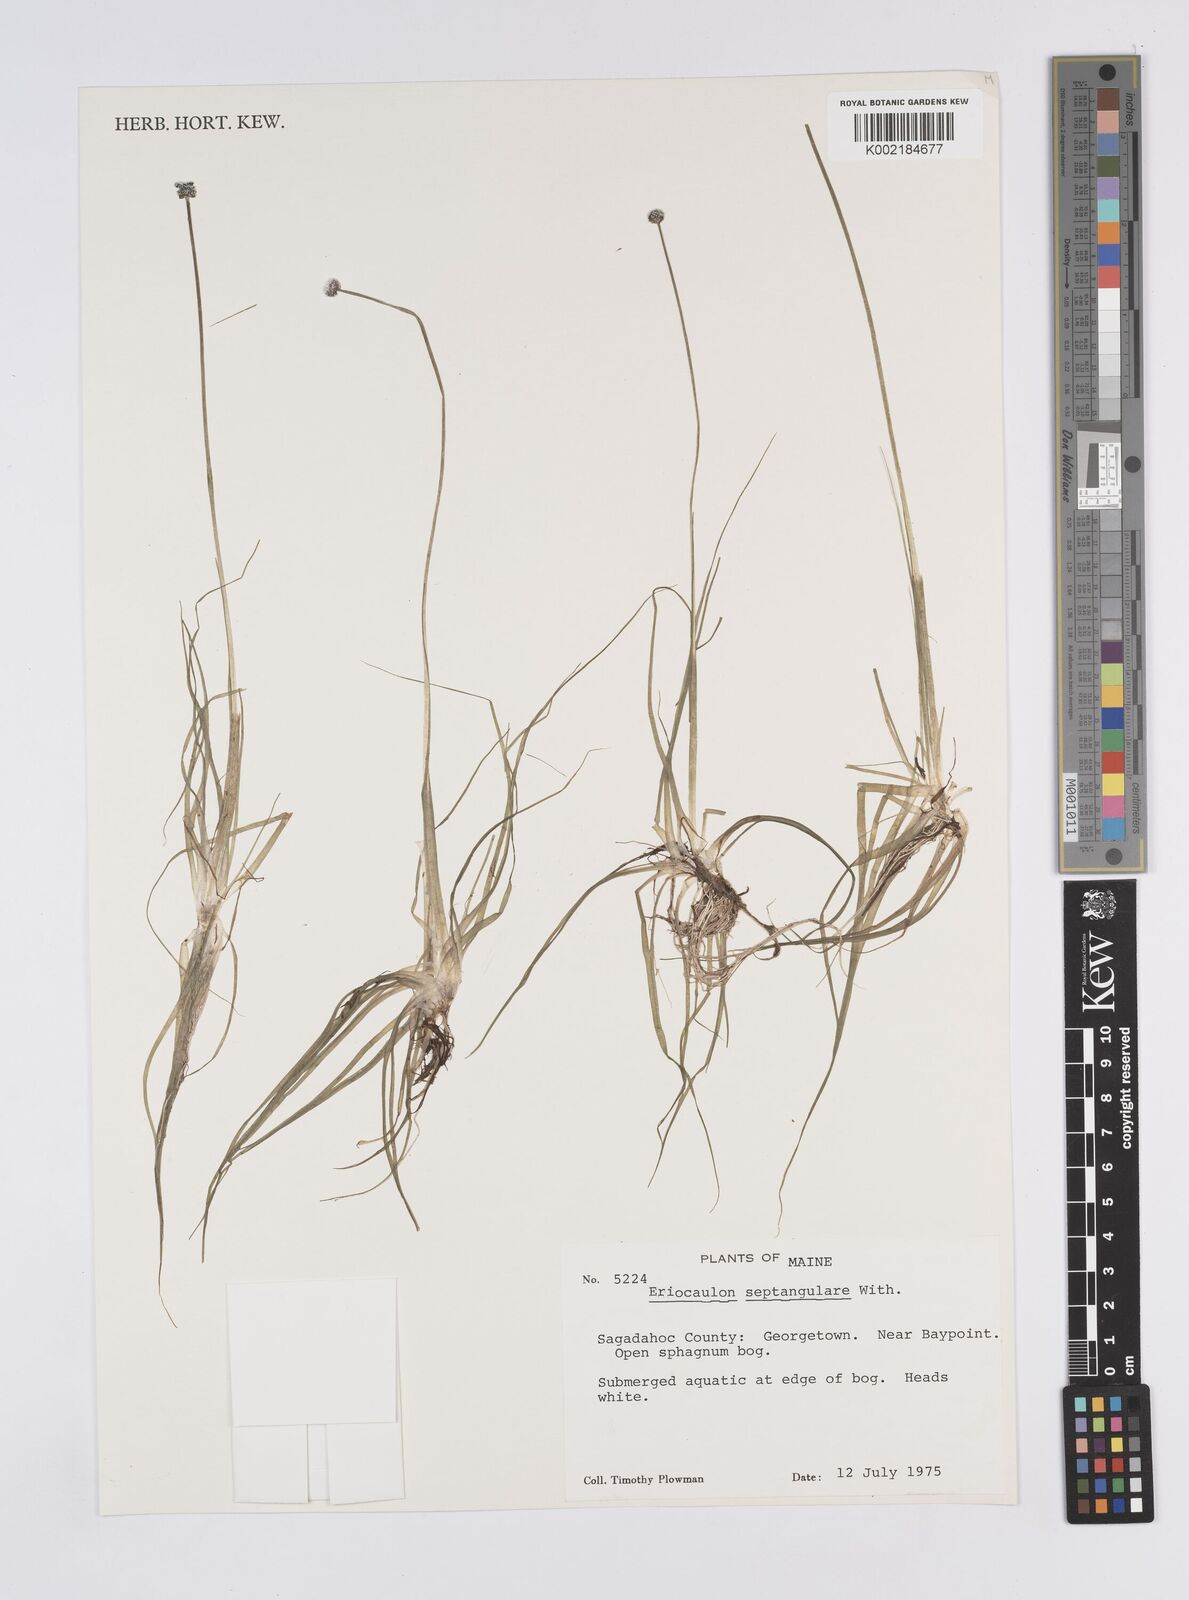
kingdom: Plantae
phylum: Tracheophyta
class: Liliopsida
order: Poales
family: Eriocaulaceae
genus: Eriocaulon
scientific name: Eriocaulon aquaticum
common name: Pipewort
